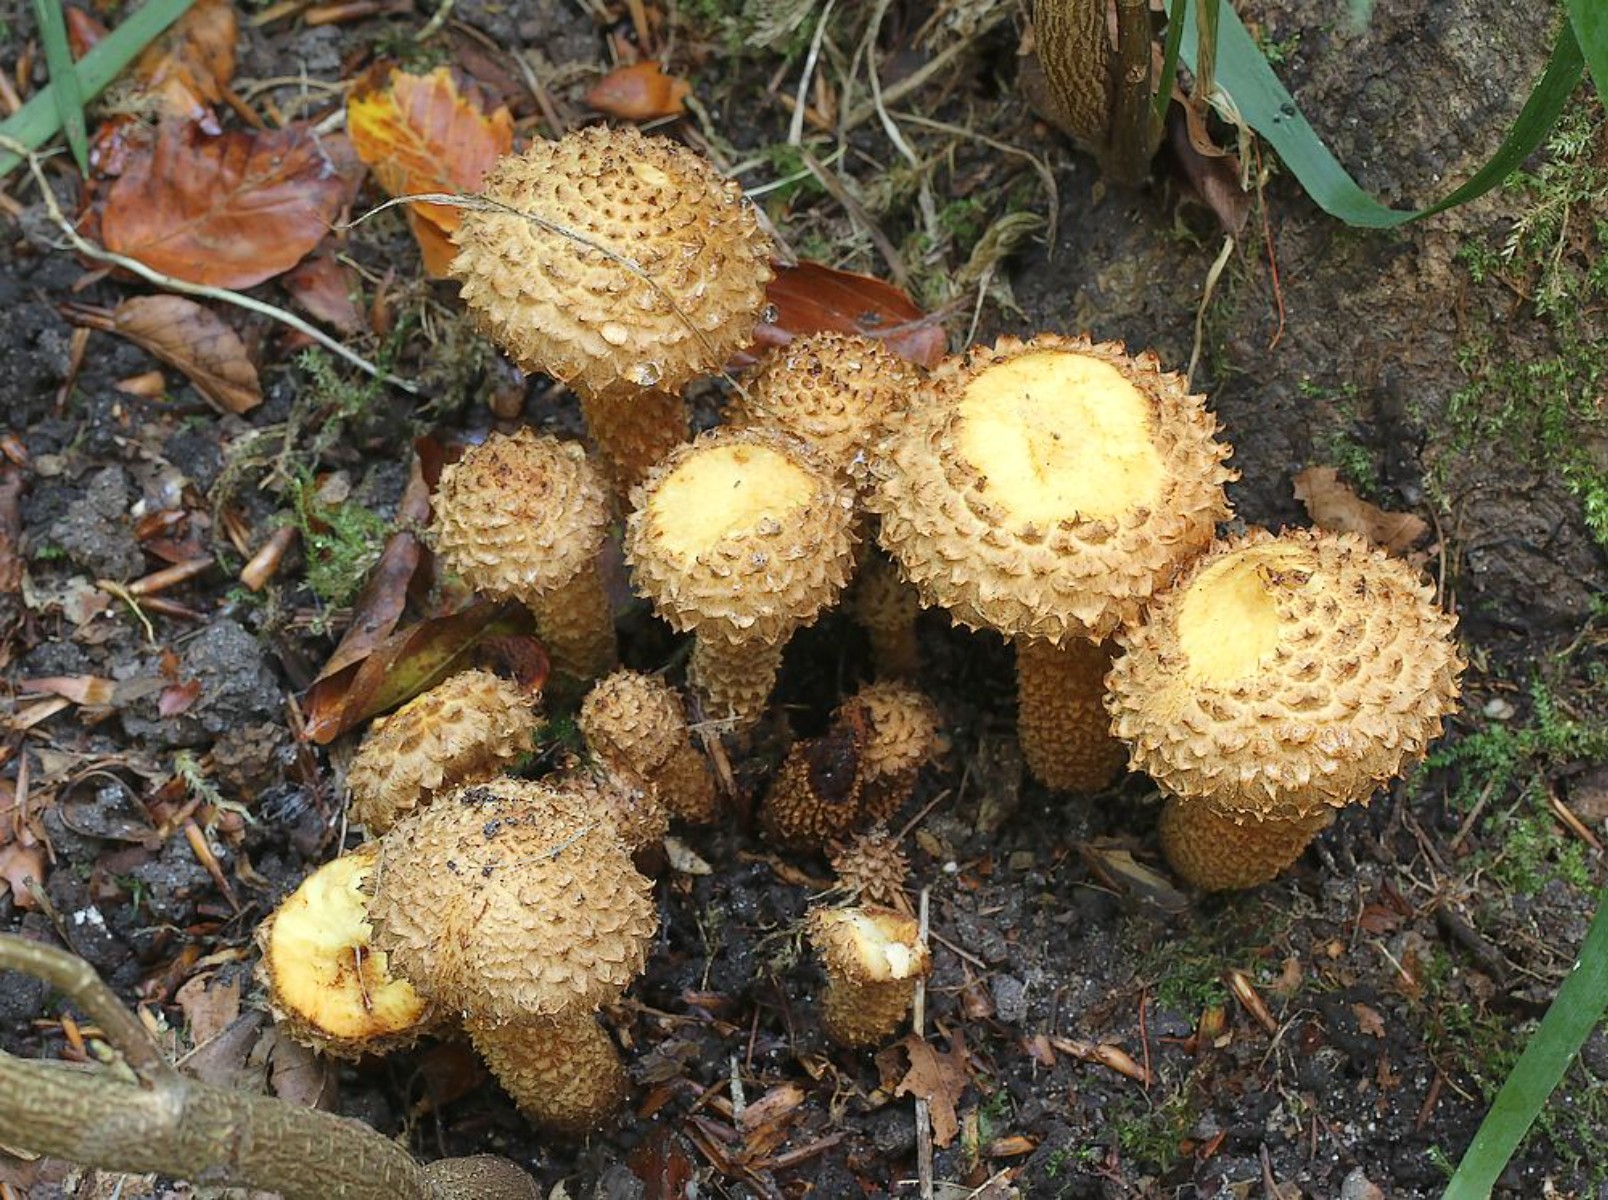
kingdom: Fungi
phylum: Basidiomycota
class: Agaricomycetes
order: Agaricales
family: Strophariaceae
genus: Pholiota
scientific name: Pholiota squarrosa
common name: krumskællet skælhat
